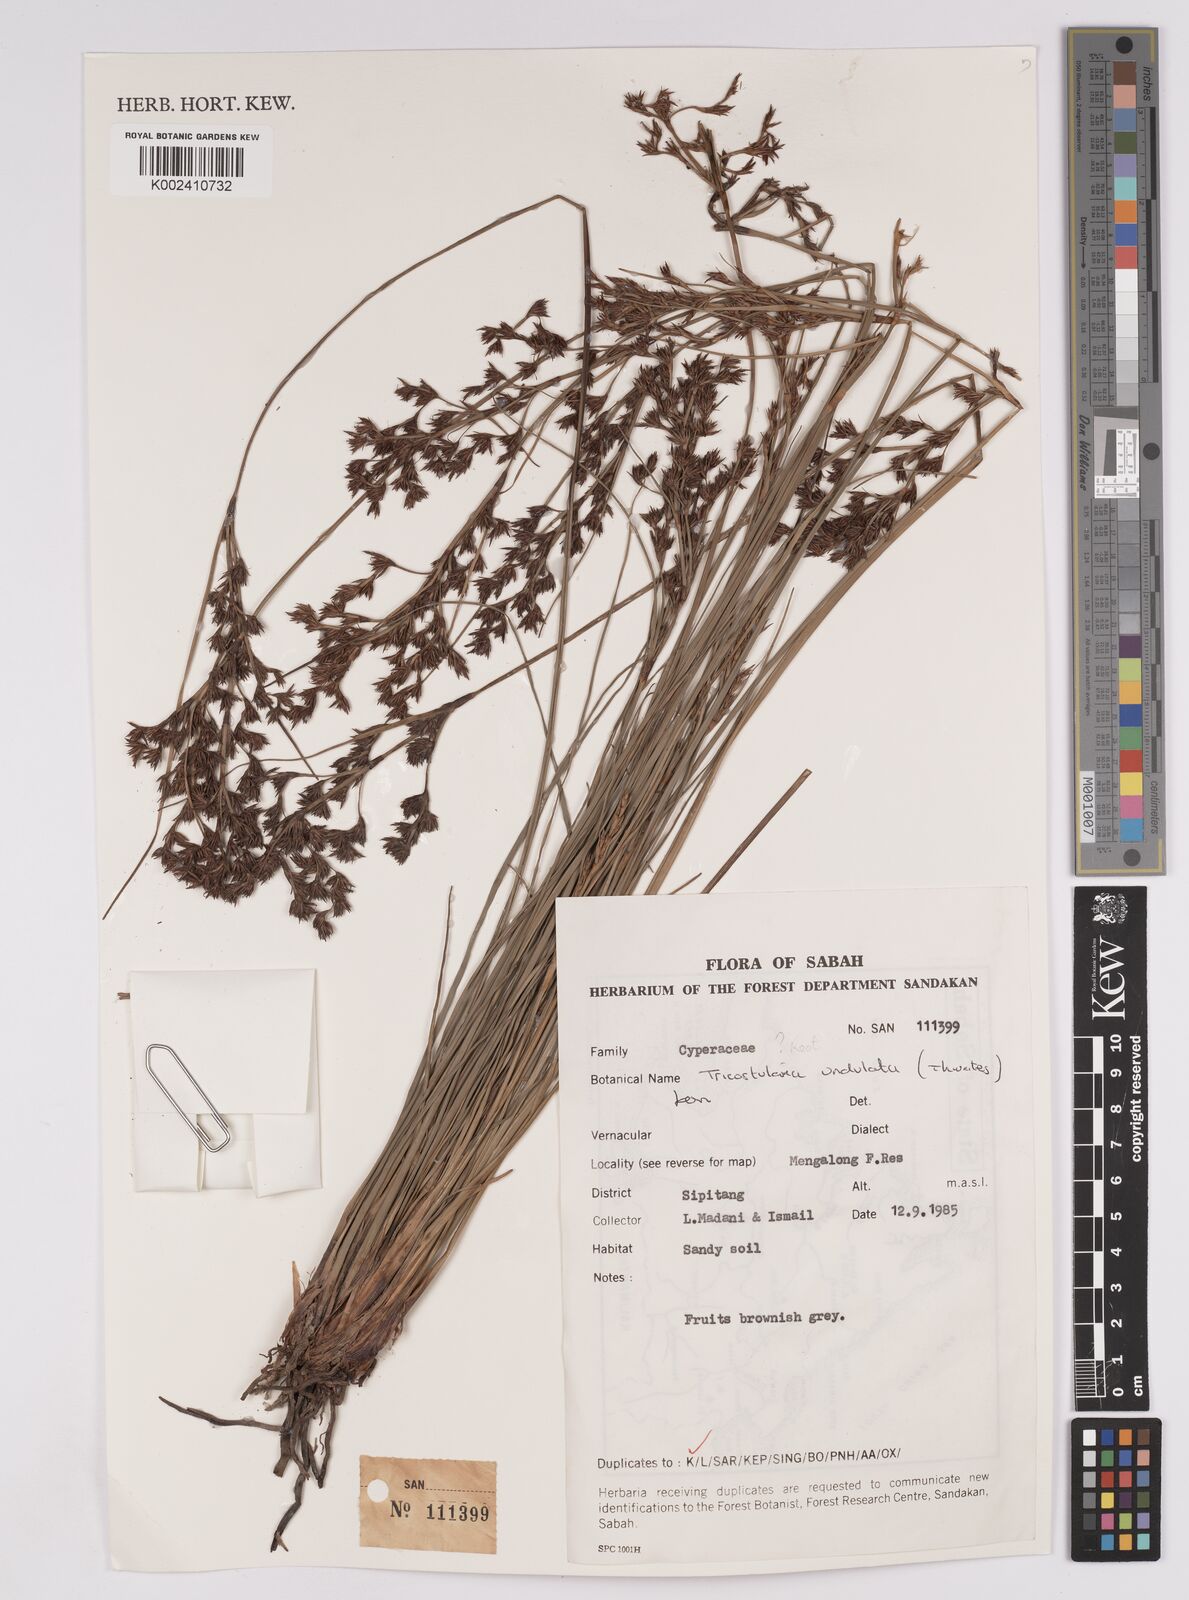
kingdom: Plantae
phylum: Tracheophyta
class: Liliopsida
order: Poales
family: Cyperaceae
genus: Anthelepis
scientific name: Anthelepis undulata
